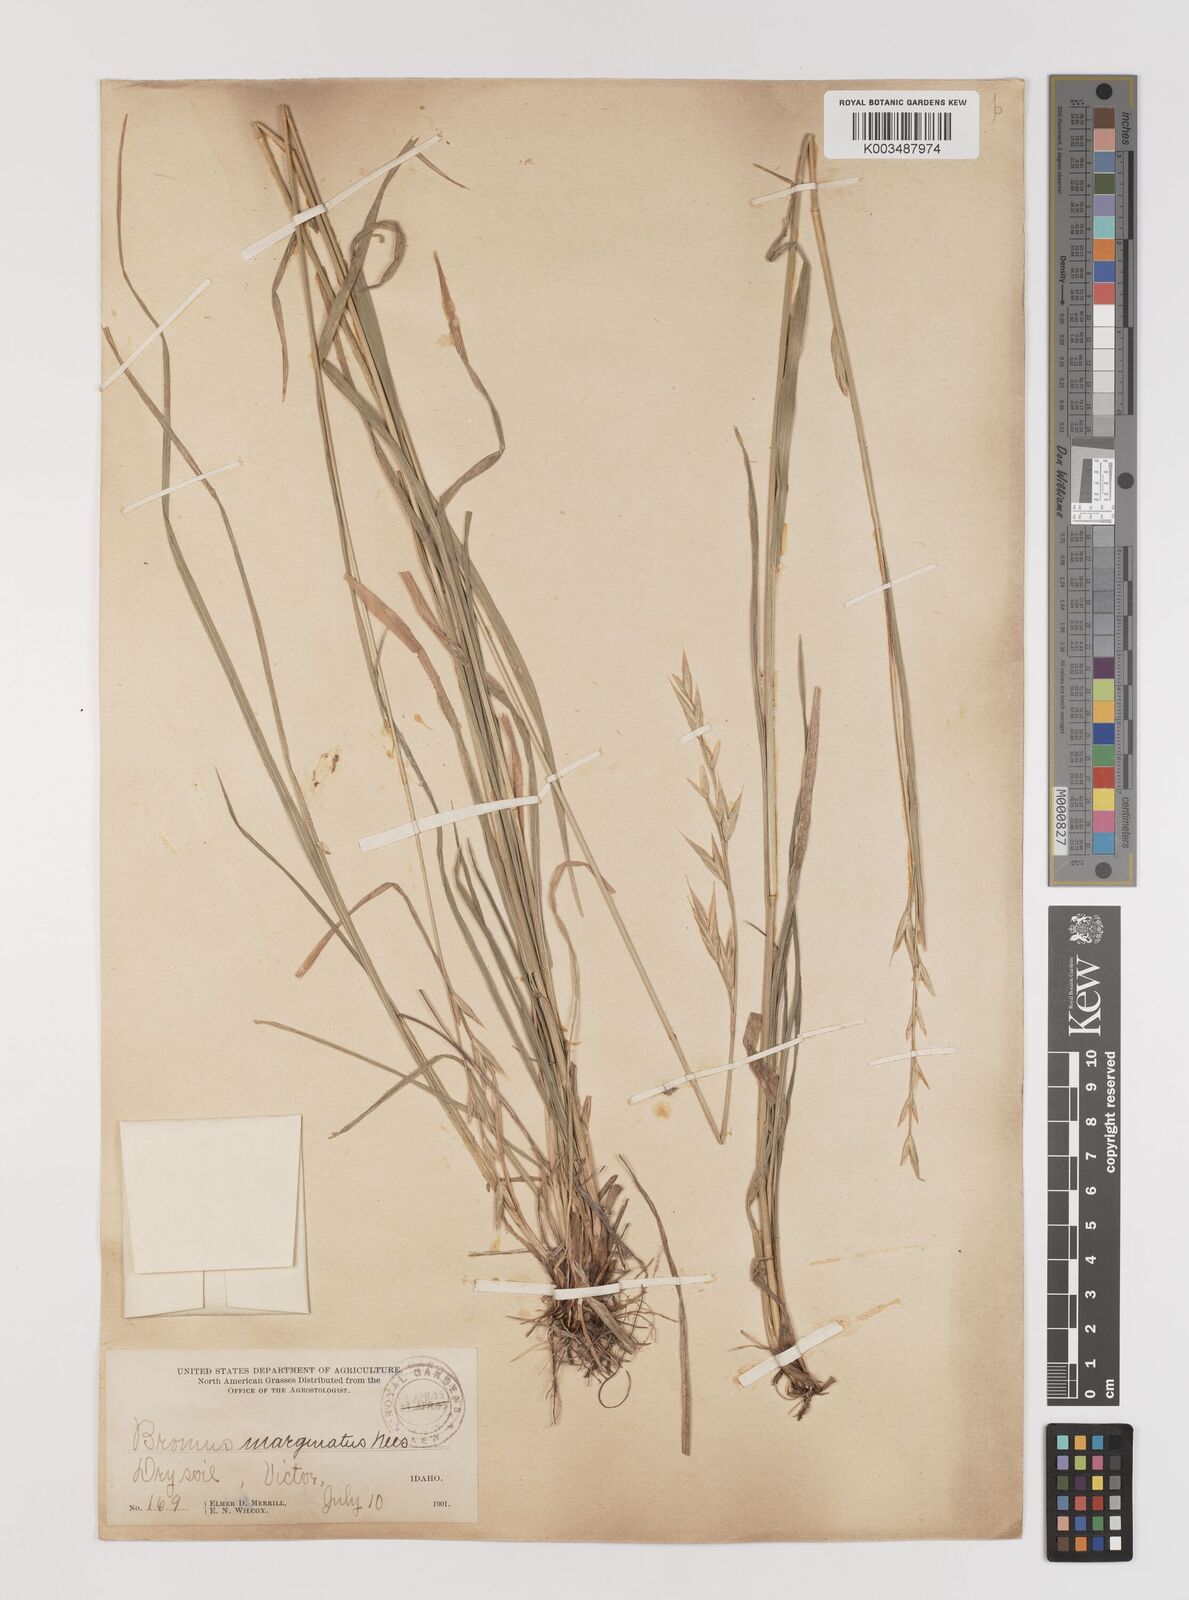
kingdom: Plantae
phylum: Tracheophyta
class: Liliopsida
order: Poales
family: Poaceae
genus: Bromus
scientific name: Bromus marginatus
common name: Western brome
